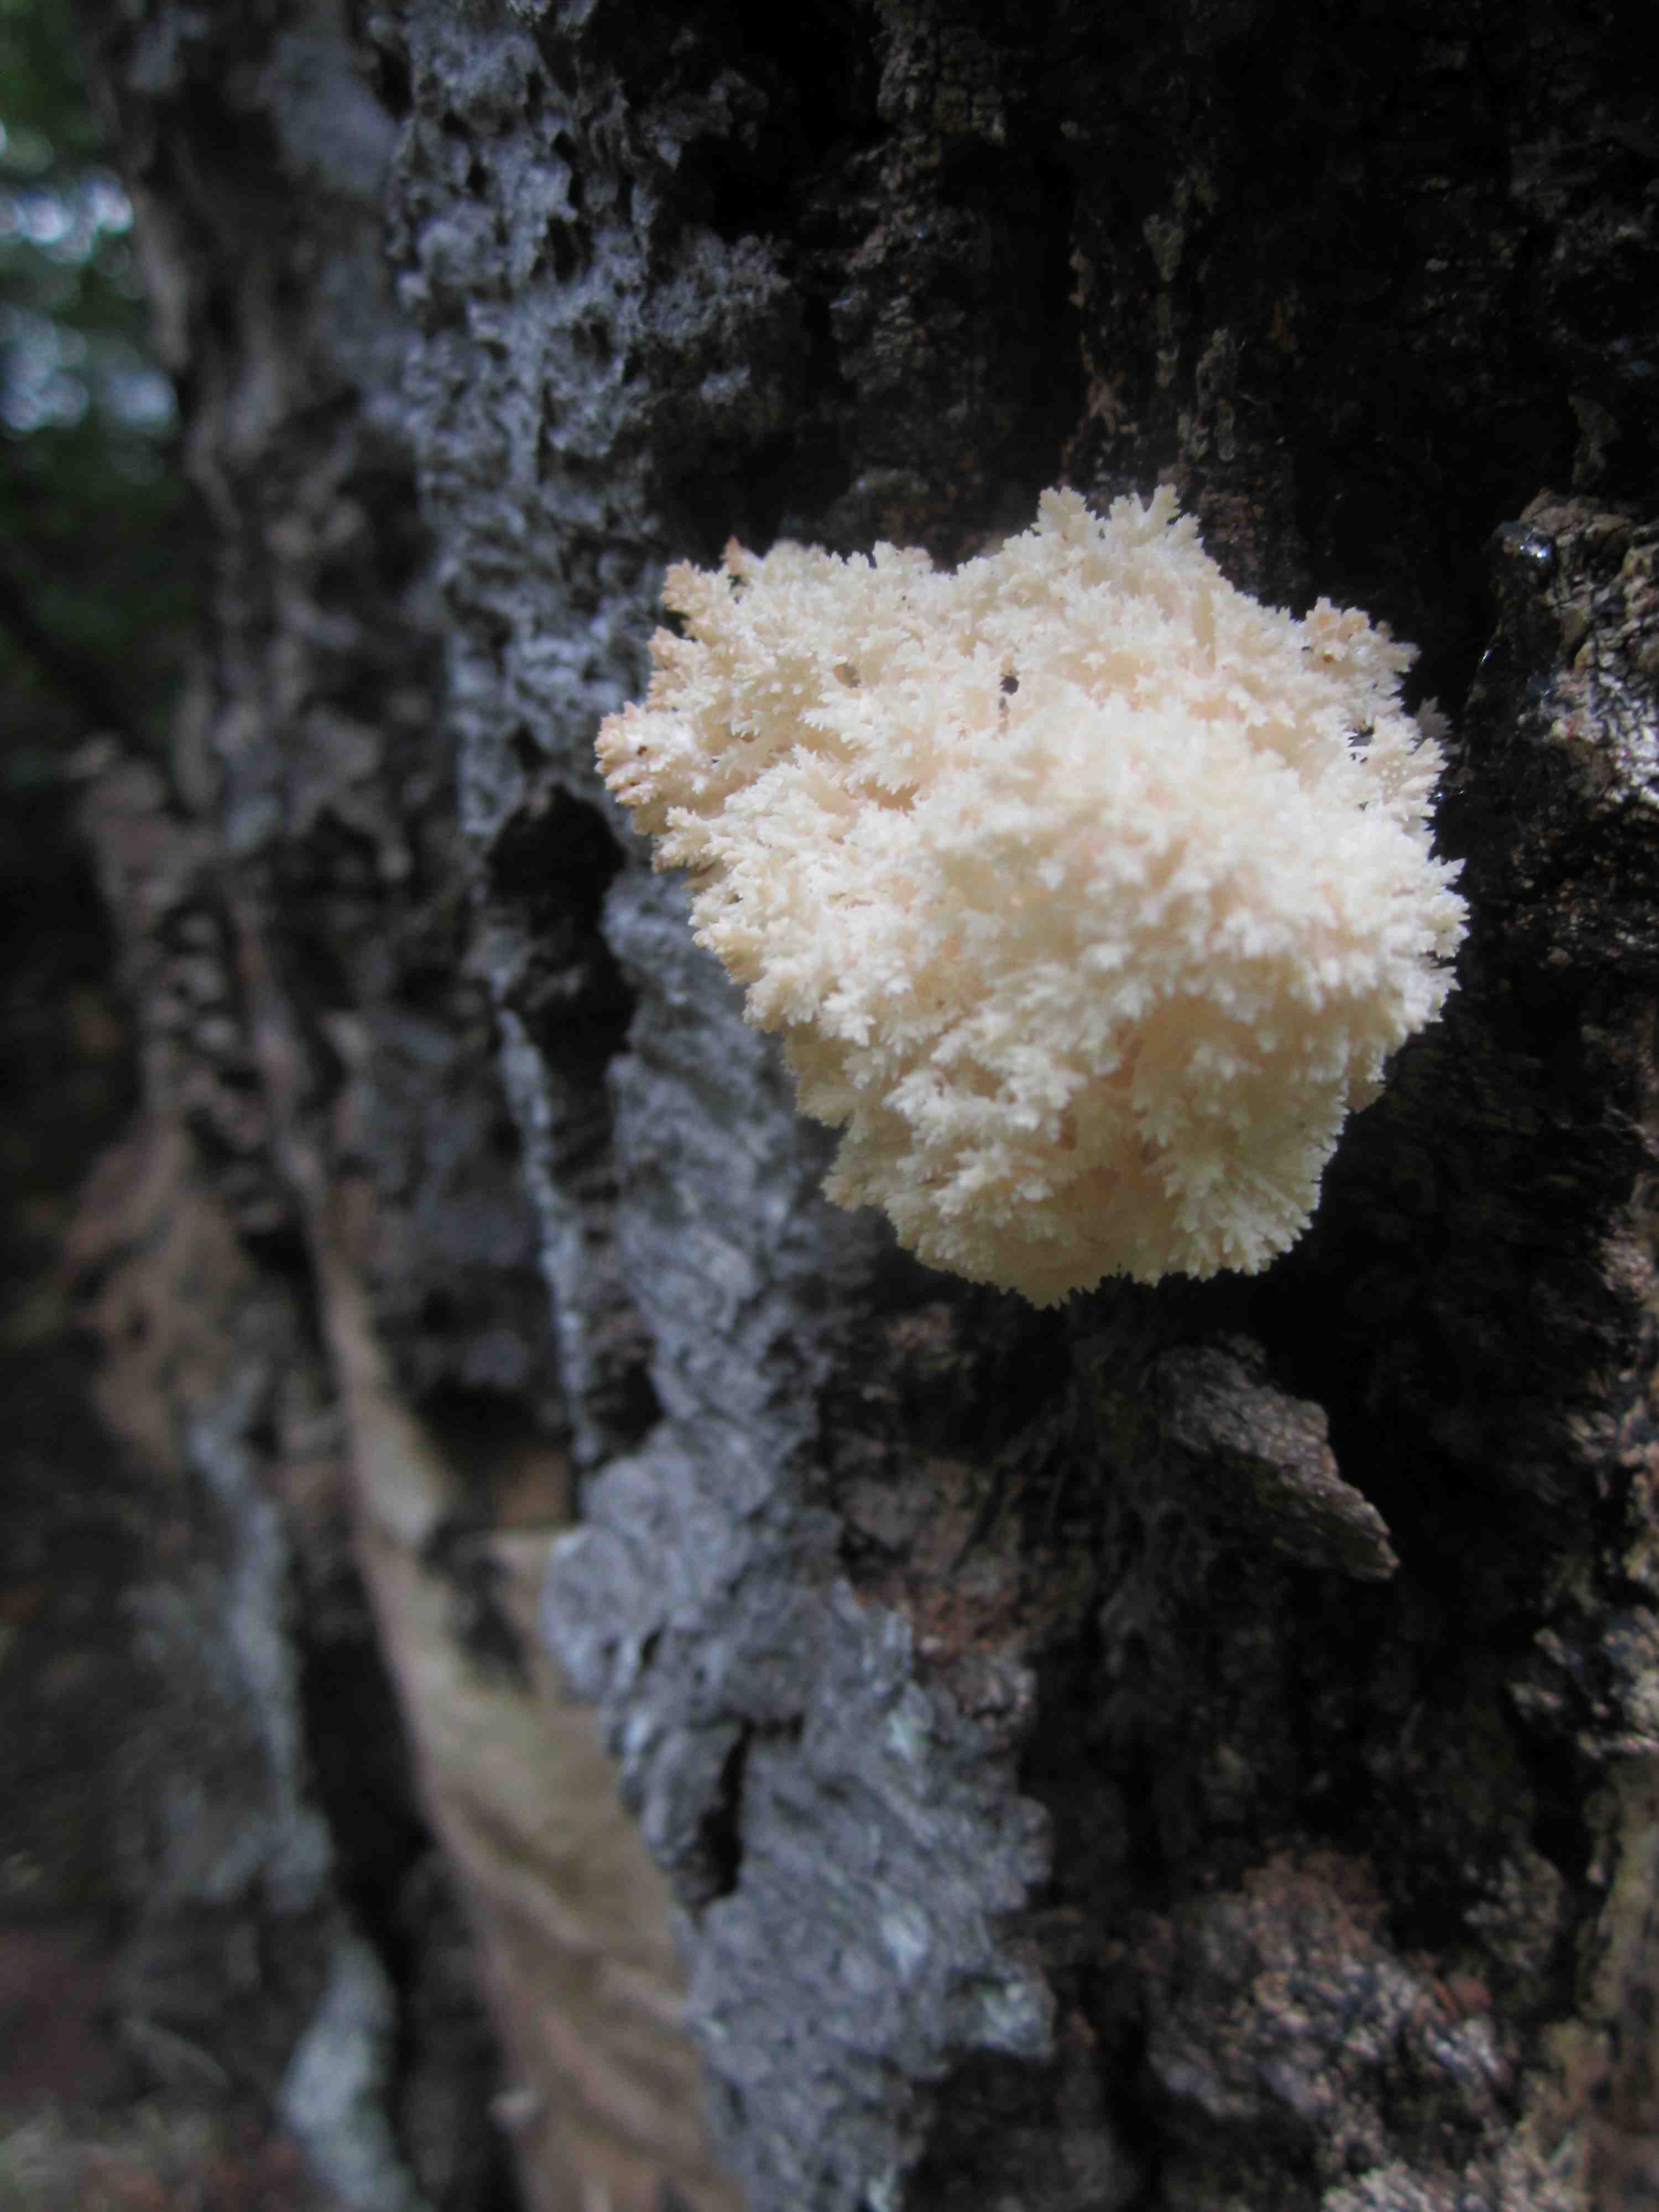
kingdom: Fungi
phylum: Basidiomycota
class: Agaricomycetes
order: Russulales
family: Hericiaceae
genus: Hericium
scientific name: Hericium coralloides
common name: koralpigsvamp
